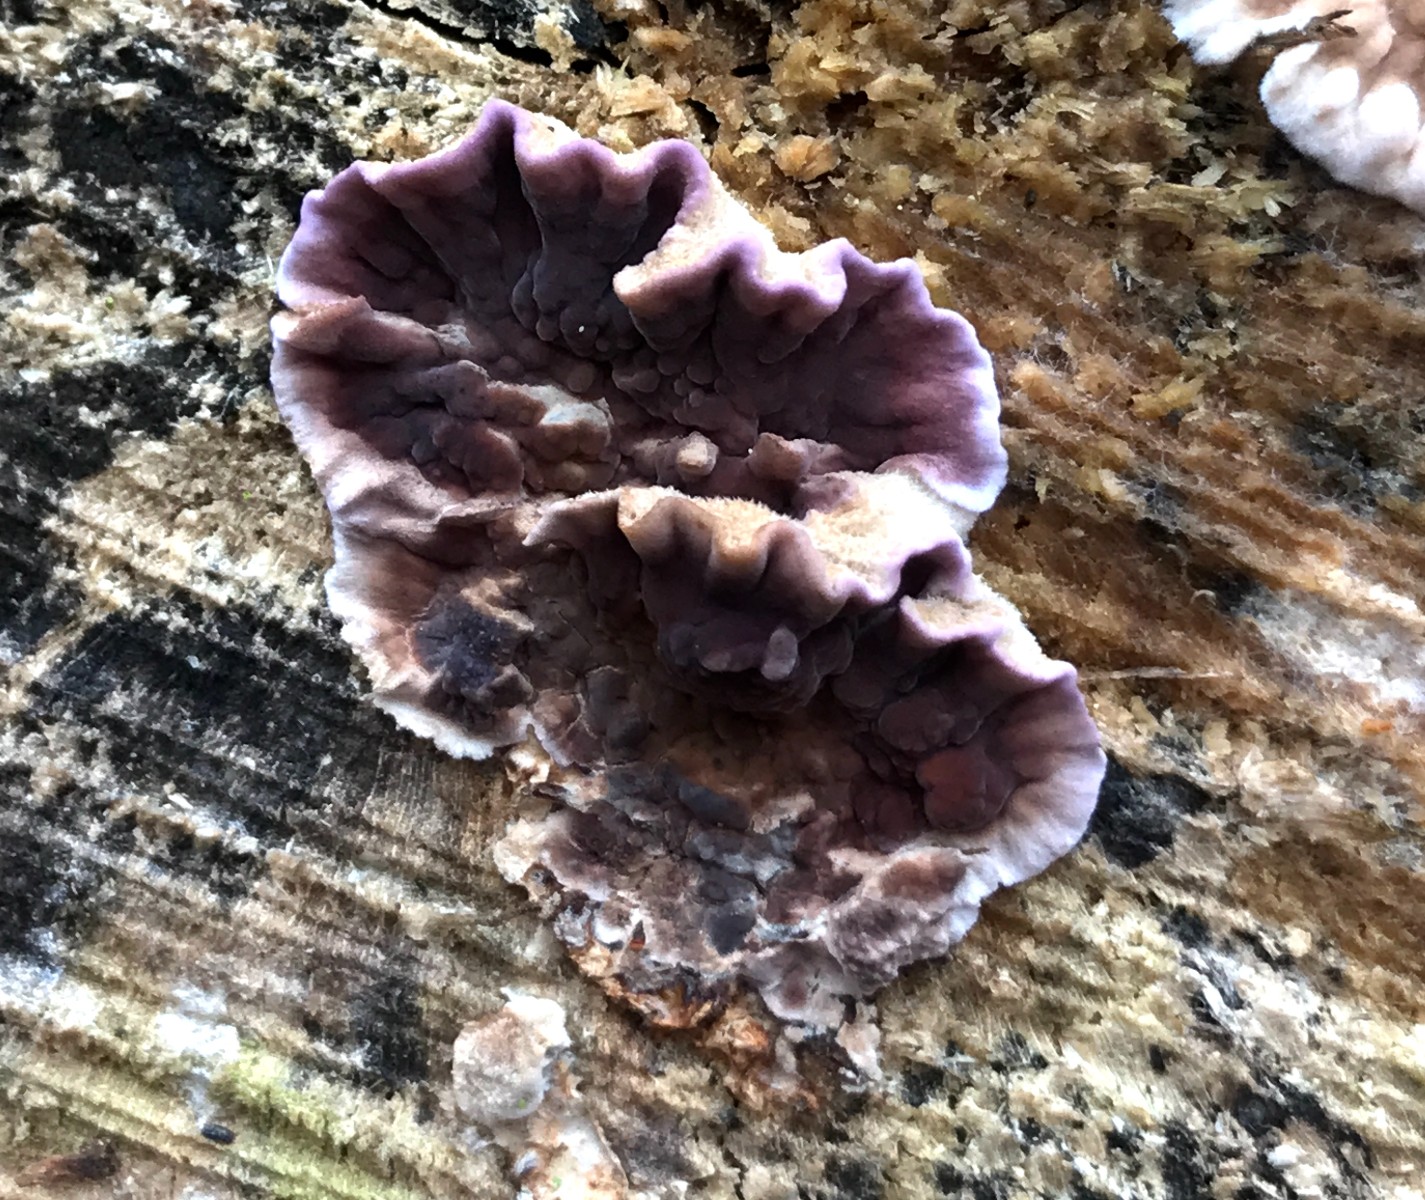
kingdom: Fungi
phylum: Basidiomycota
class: Agaricomycetes
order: Agaricales
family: Cyphellaceae
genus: Chondrostereum
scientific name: Chondrostereum purpureum
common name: purpurlædersvamp
